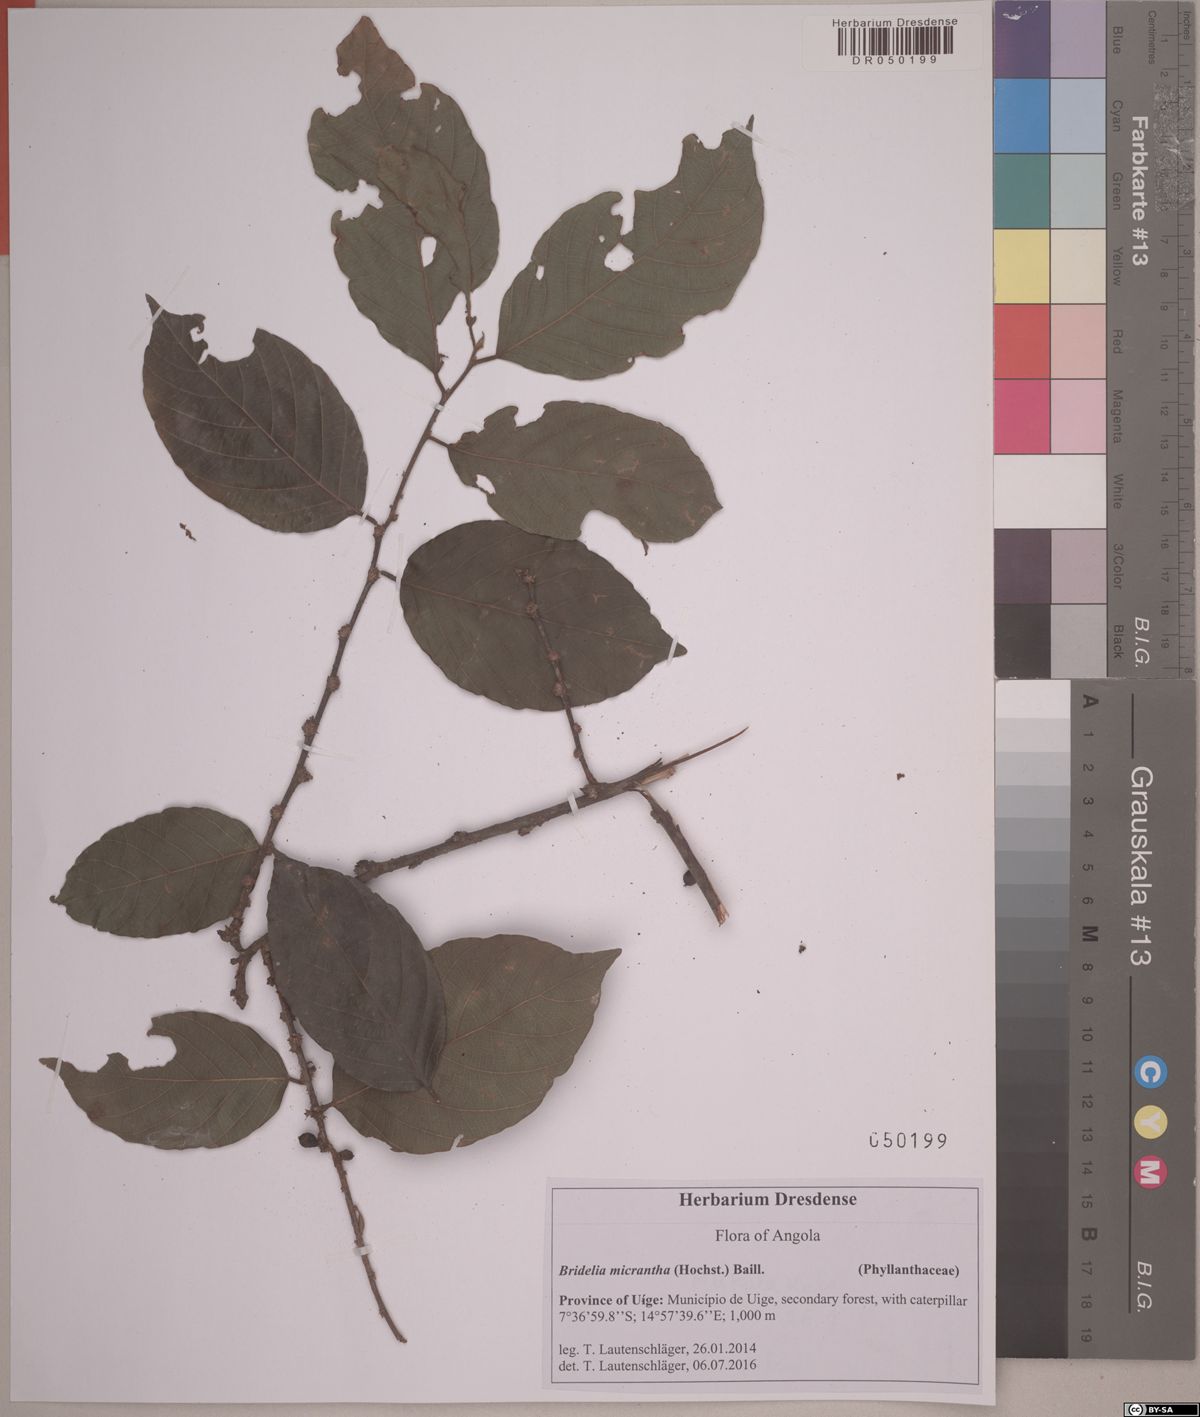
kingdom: Plantae
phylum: Tracheophyta
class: Magnoliopsida
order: Malpighiales
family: Phyllanthaceae
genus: Bridelia
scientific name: Bridelia micrantha
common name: Bridelia
